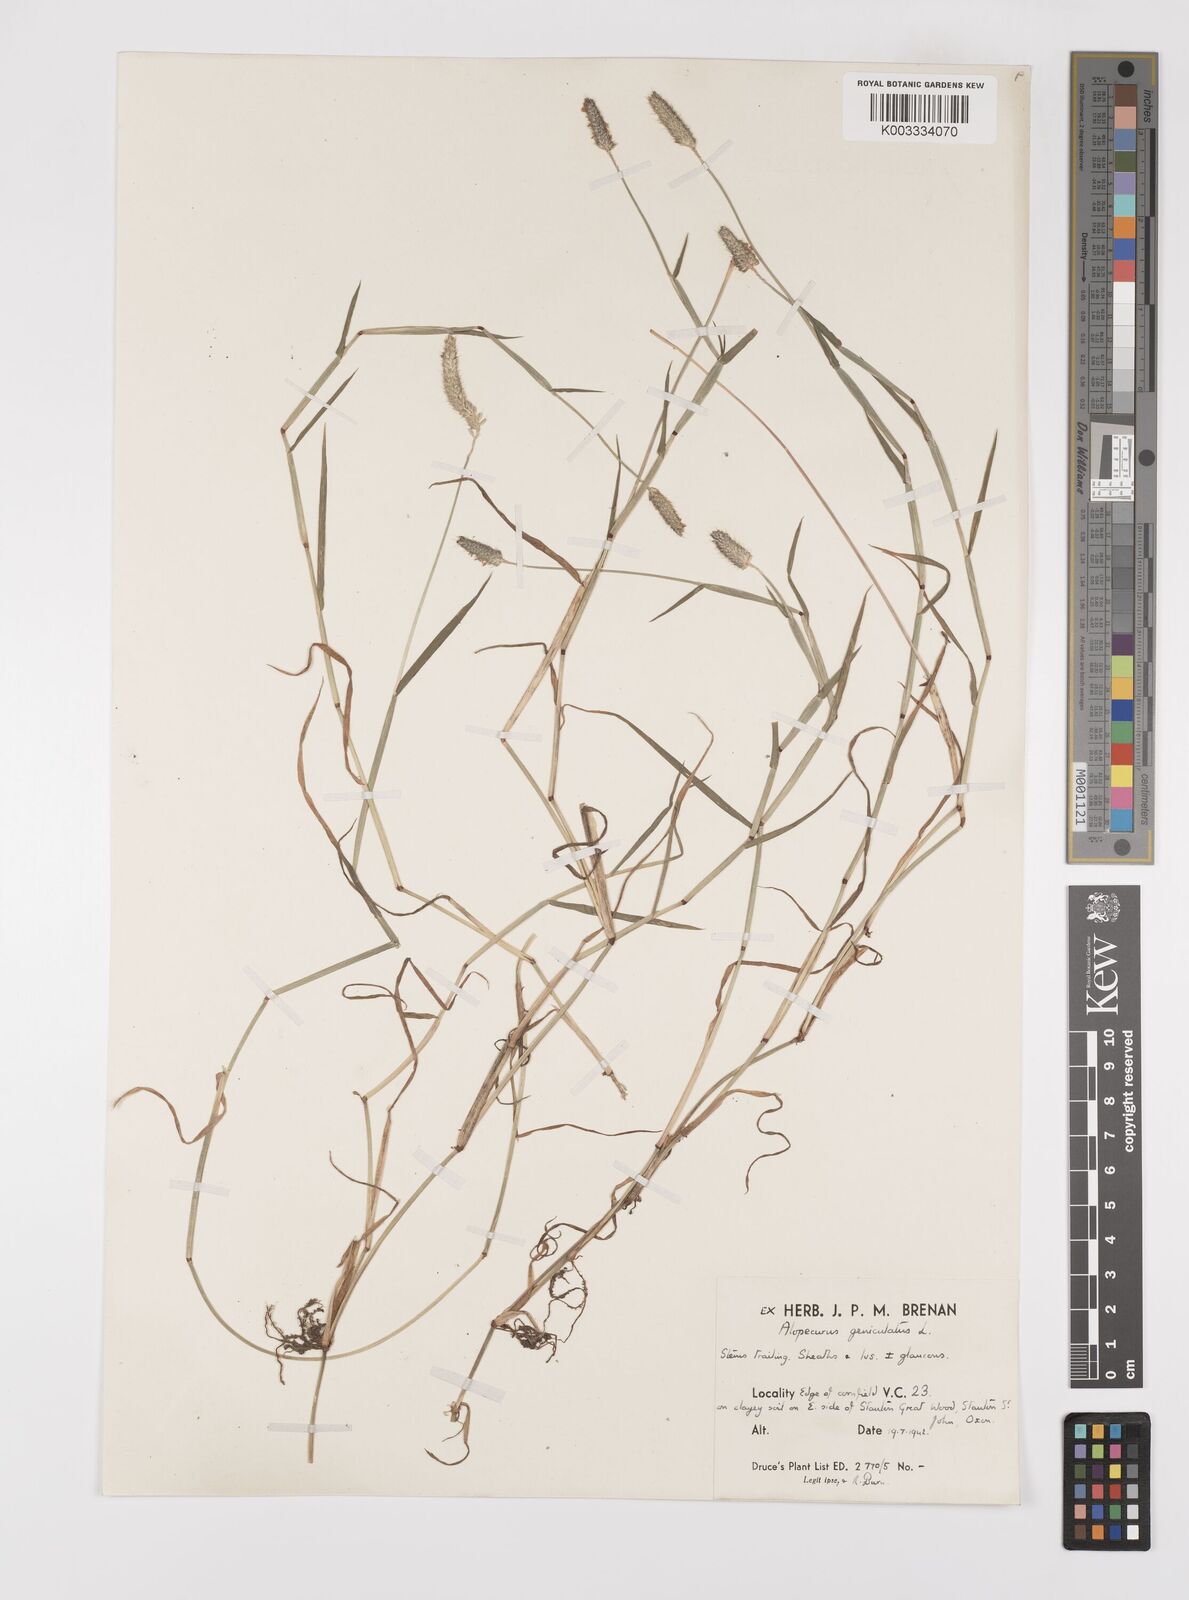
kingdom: Plantae
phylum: Tracheophyta
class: Liliopsida
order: Poales
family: Poaceae
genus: Alopecurus
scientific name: Alopecurus geniculatus
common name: Water foxtail
